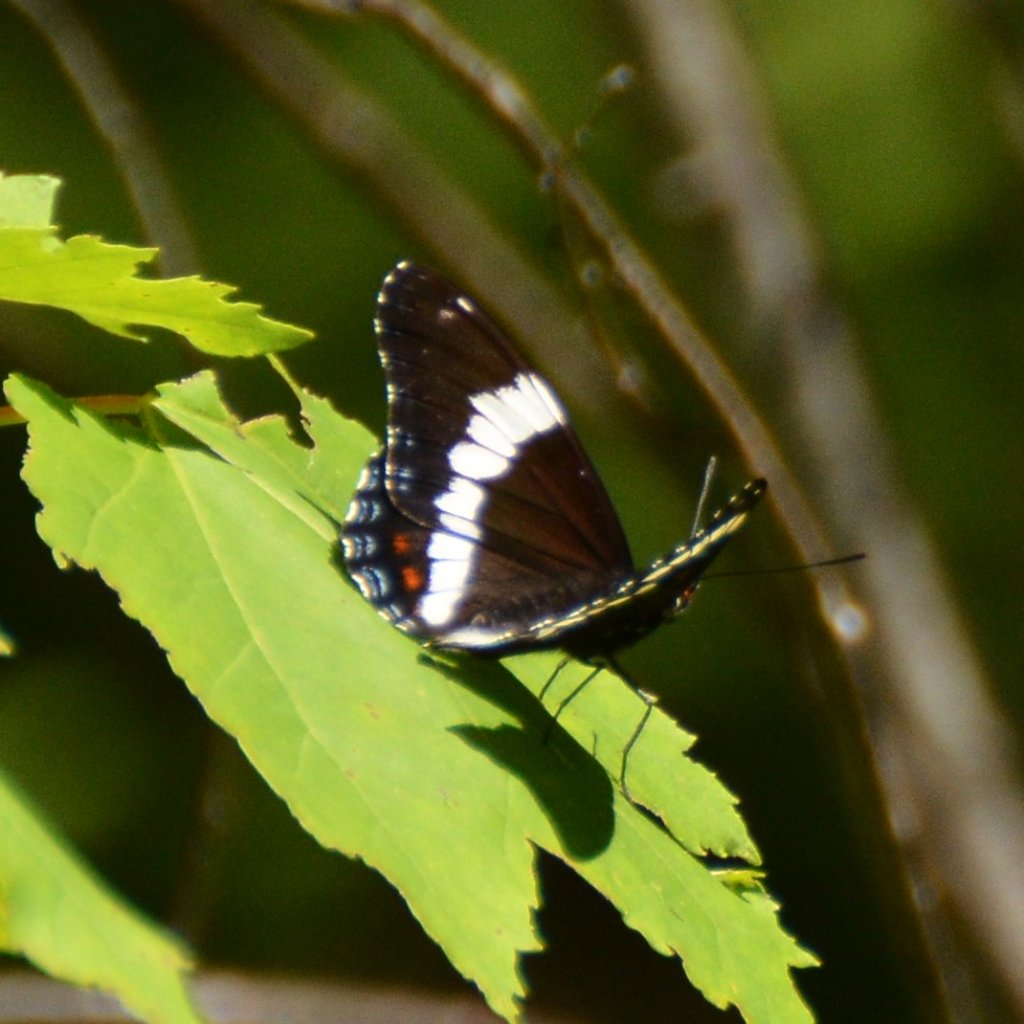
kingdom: Animalia
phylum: Arthropoda
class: Insecta
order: Lepidoptera
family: Nymphalidae
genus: Limenitis
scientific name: Limenitis arthemis
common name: Red-spotted Admiral
